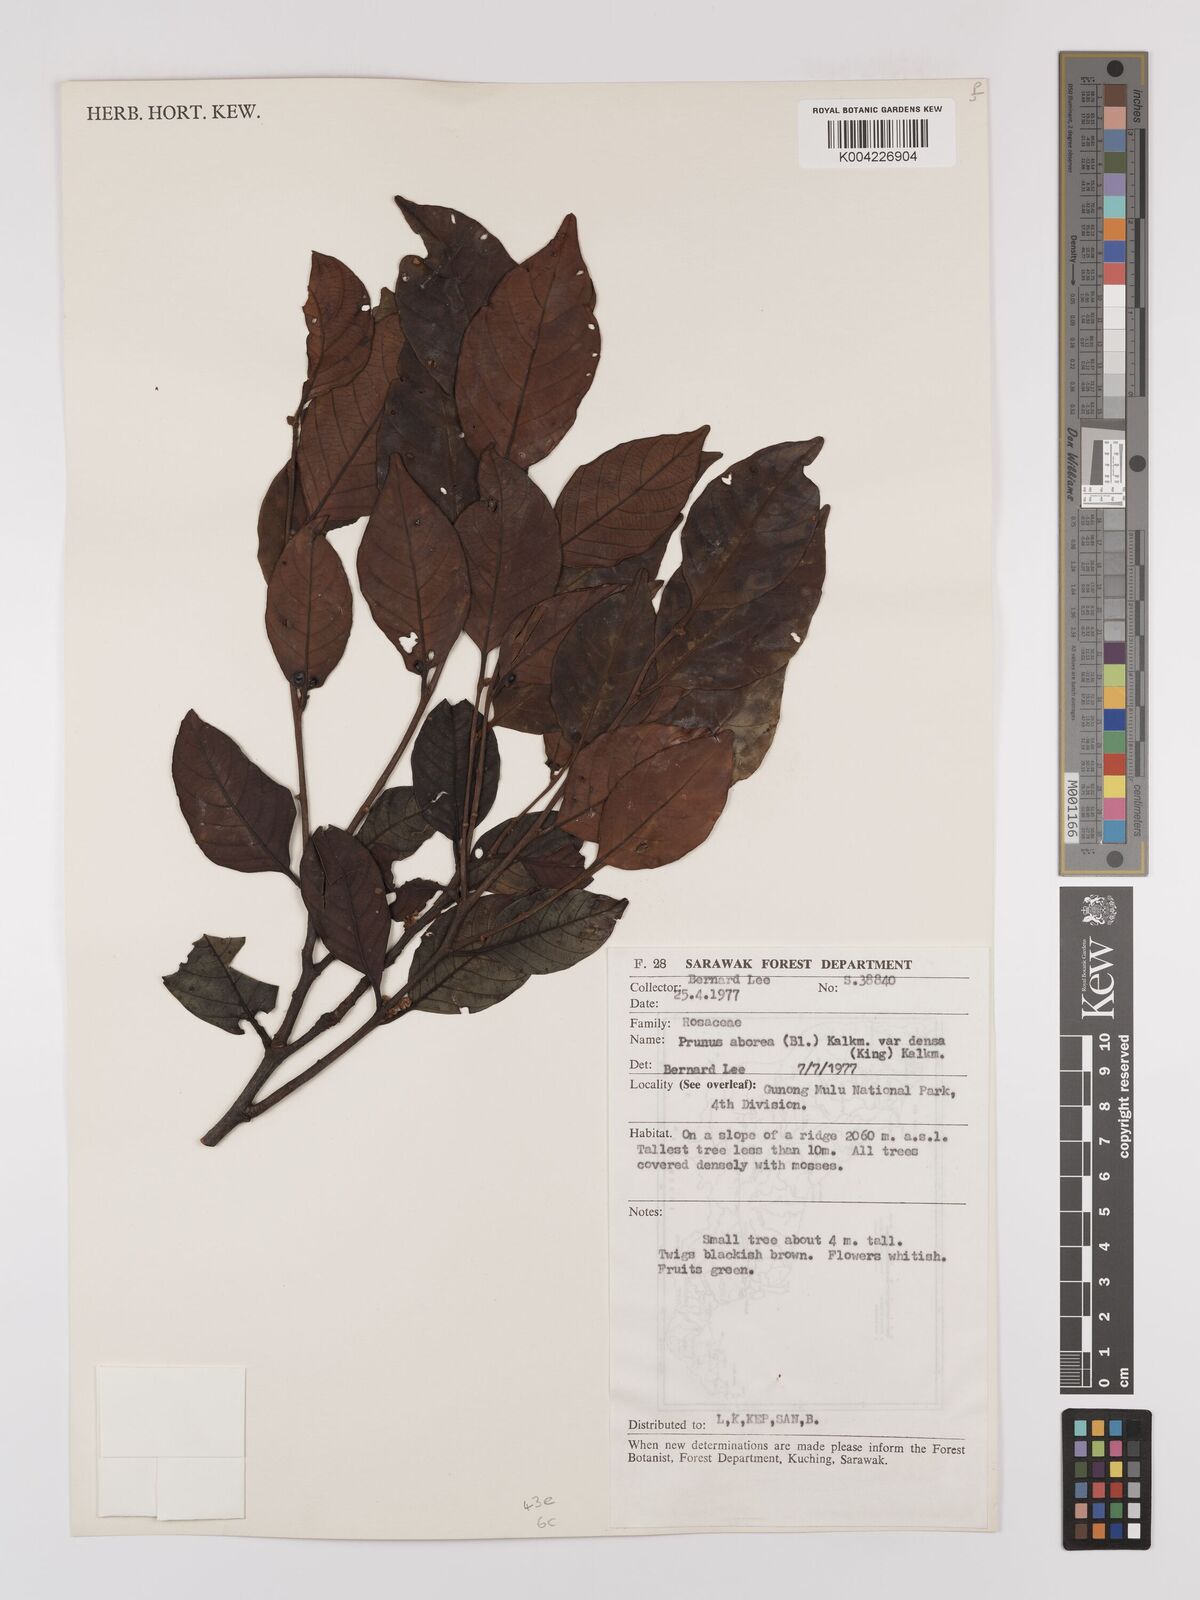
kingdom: Plantae
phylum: Tracheophyta
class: Magnoliopsida
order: Rosales
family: Rosaceae
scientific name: Rosaceae
